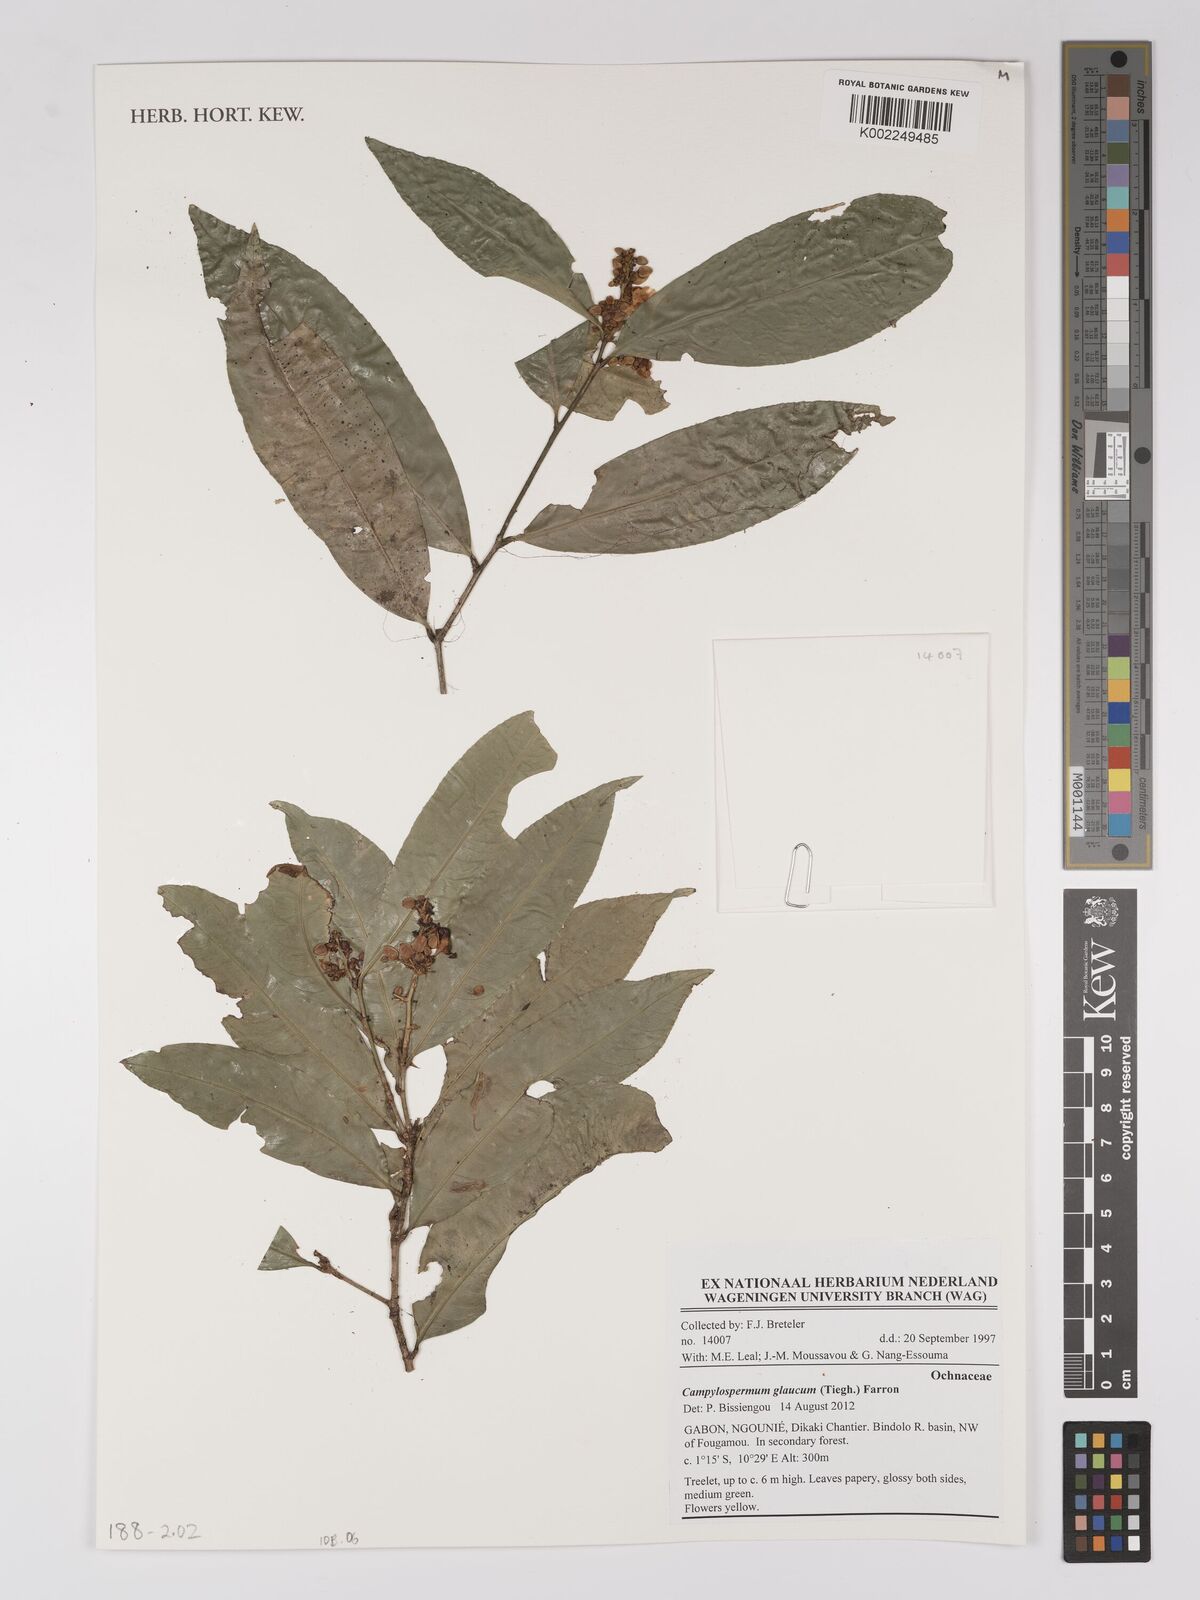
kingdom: Plantae
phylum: Tracheophyta
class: Magnoliopsida
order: Malpighiales
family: Ochnaceae
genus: Campylospermum
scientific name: Campylospermum glaucum
